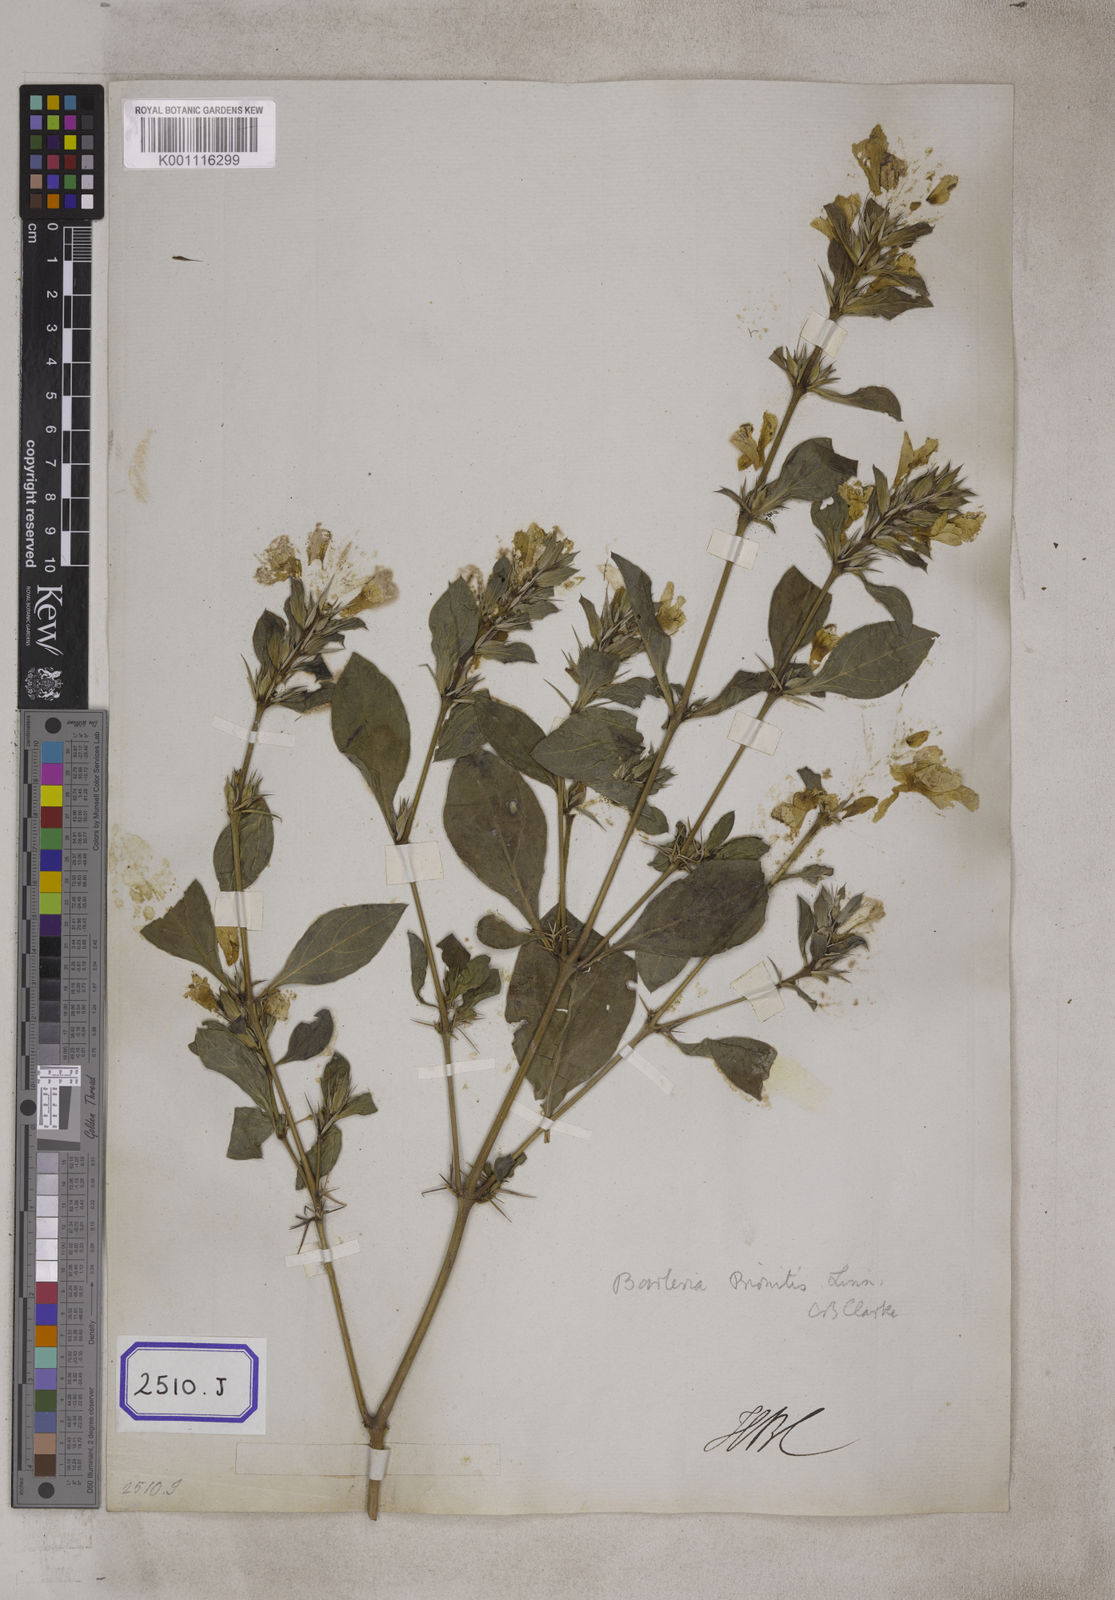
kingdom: Plantae
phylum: Tracheophyta
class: Magnoliopsida
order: Lamiales
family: Acanthaceae
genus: Barleria
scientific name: Barleria prionitis
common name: Barleria
